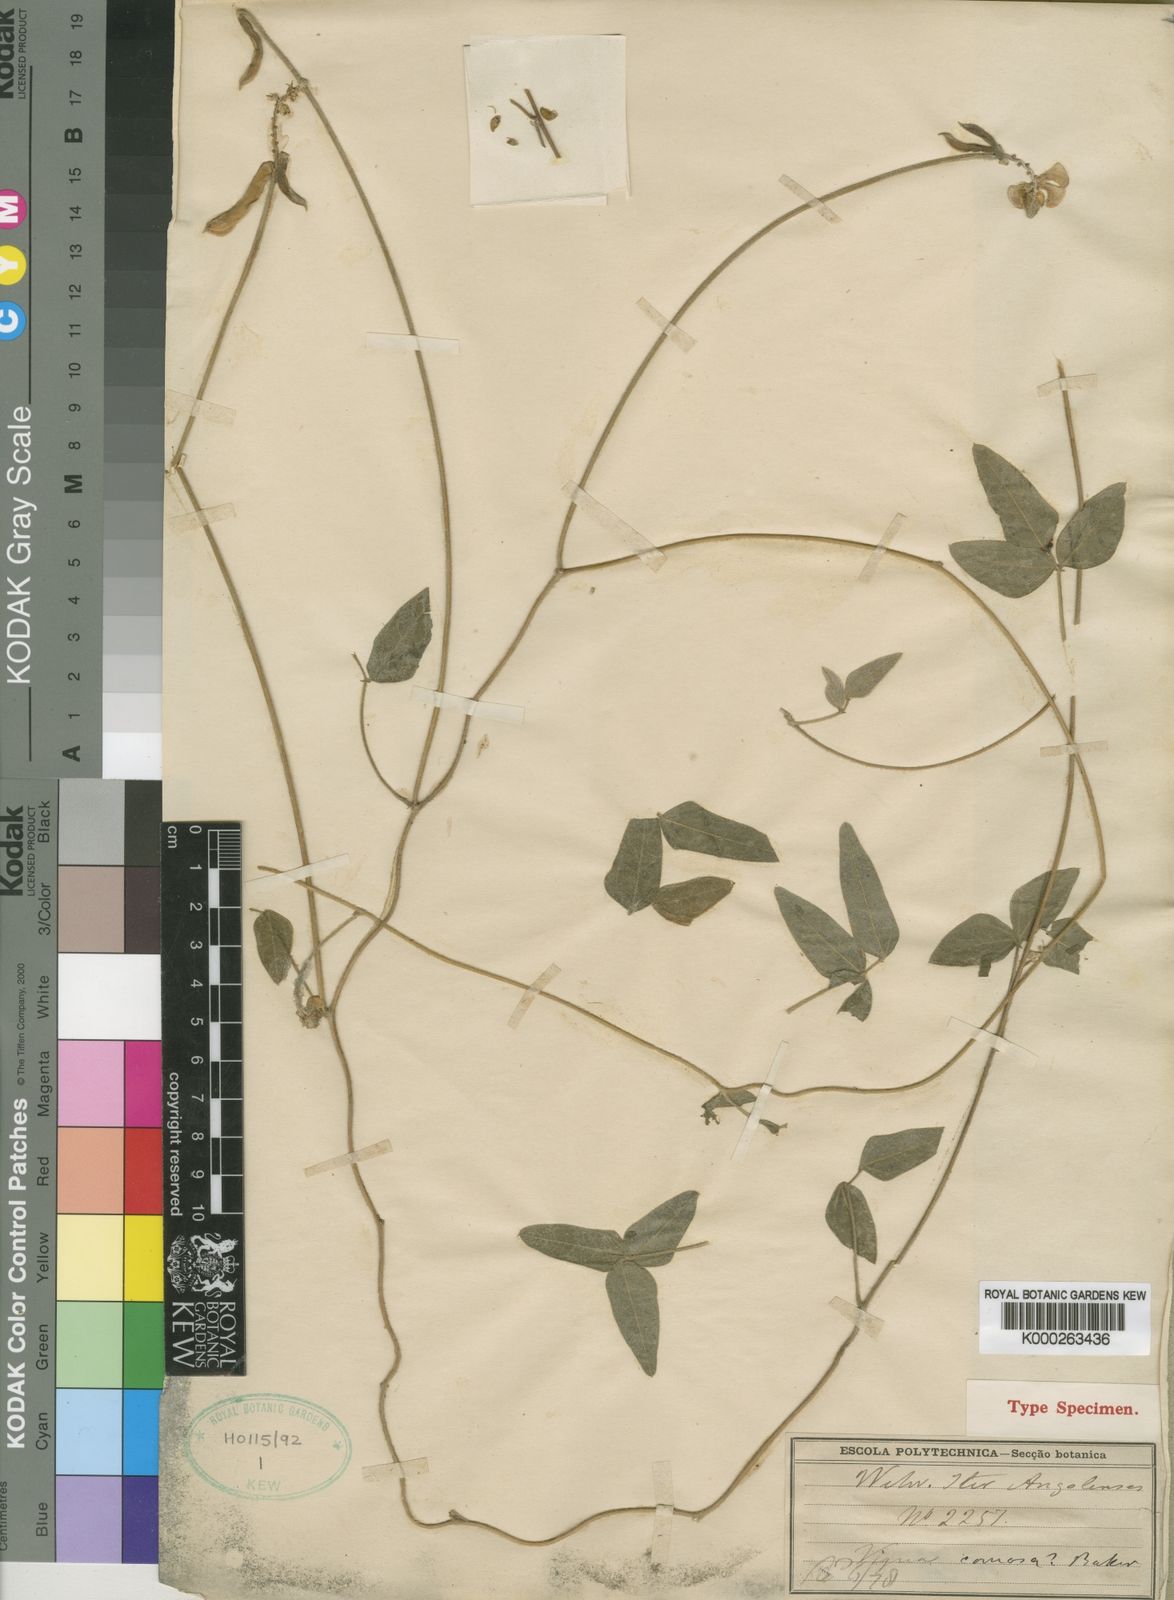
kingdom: Plantae
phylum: Tracheophyta
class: Magnoliopsida
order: Fabales
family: Fabaceae
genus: Vigna
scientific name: Vigna comosa
